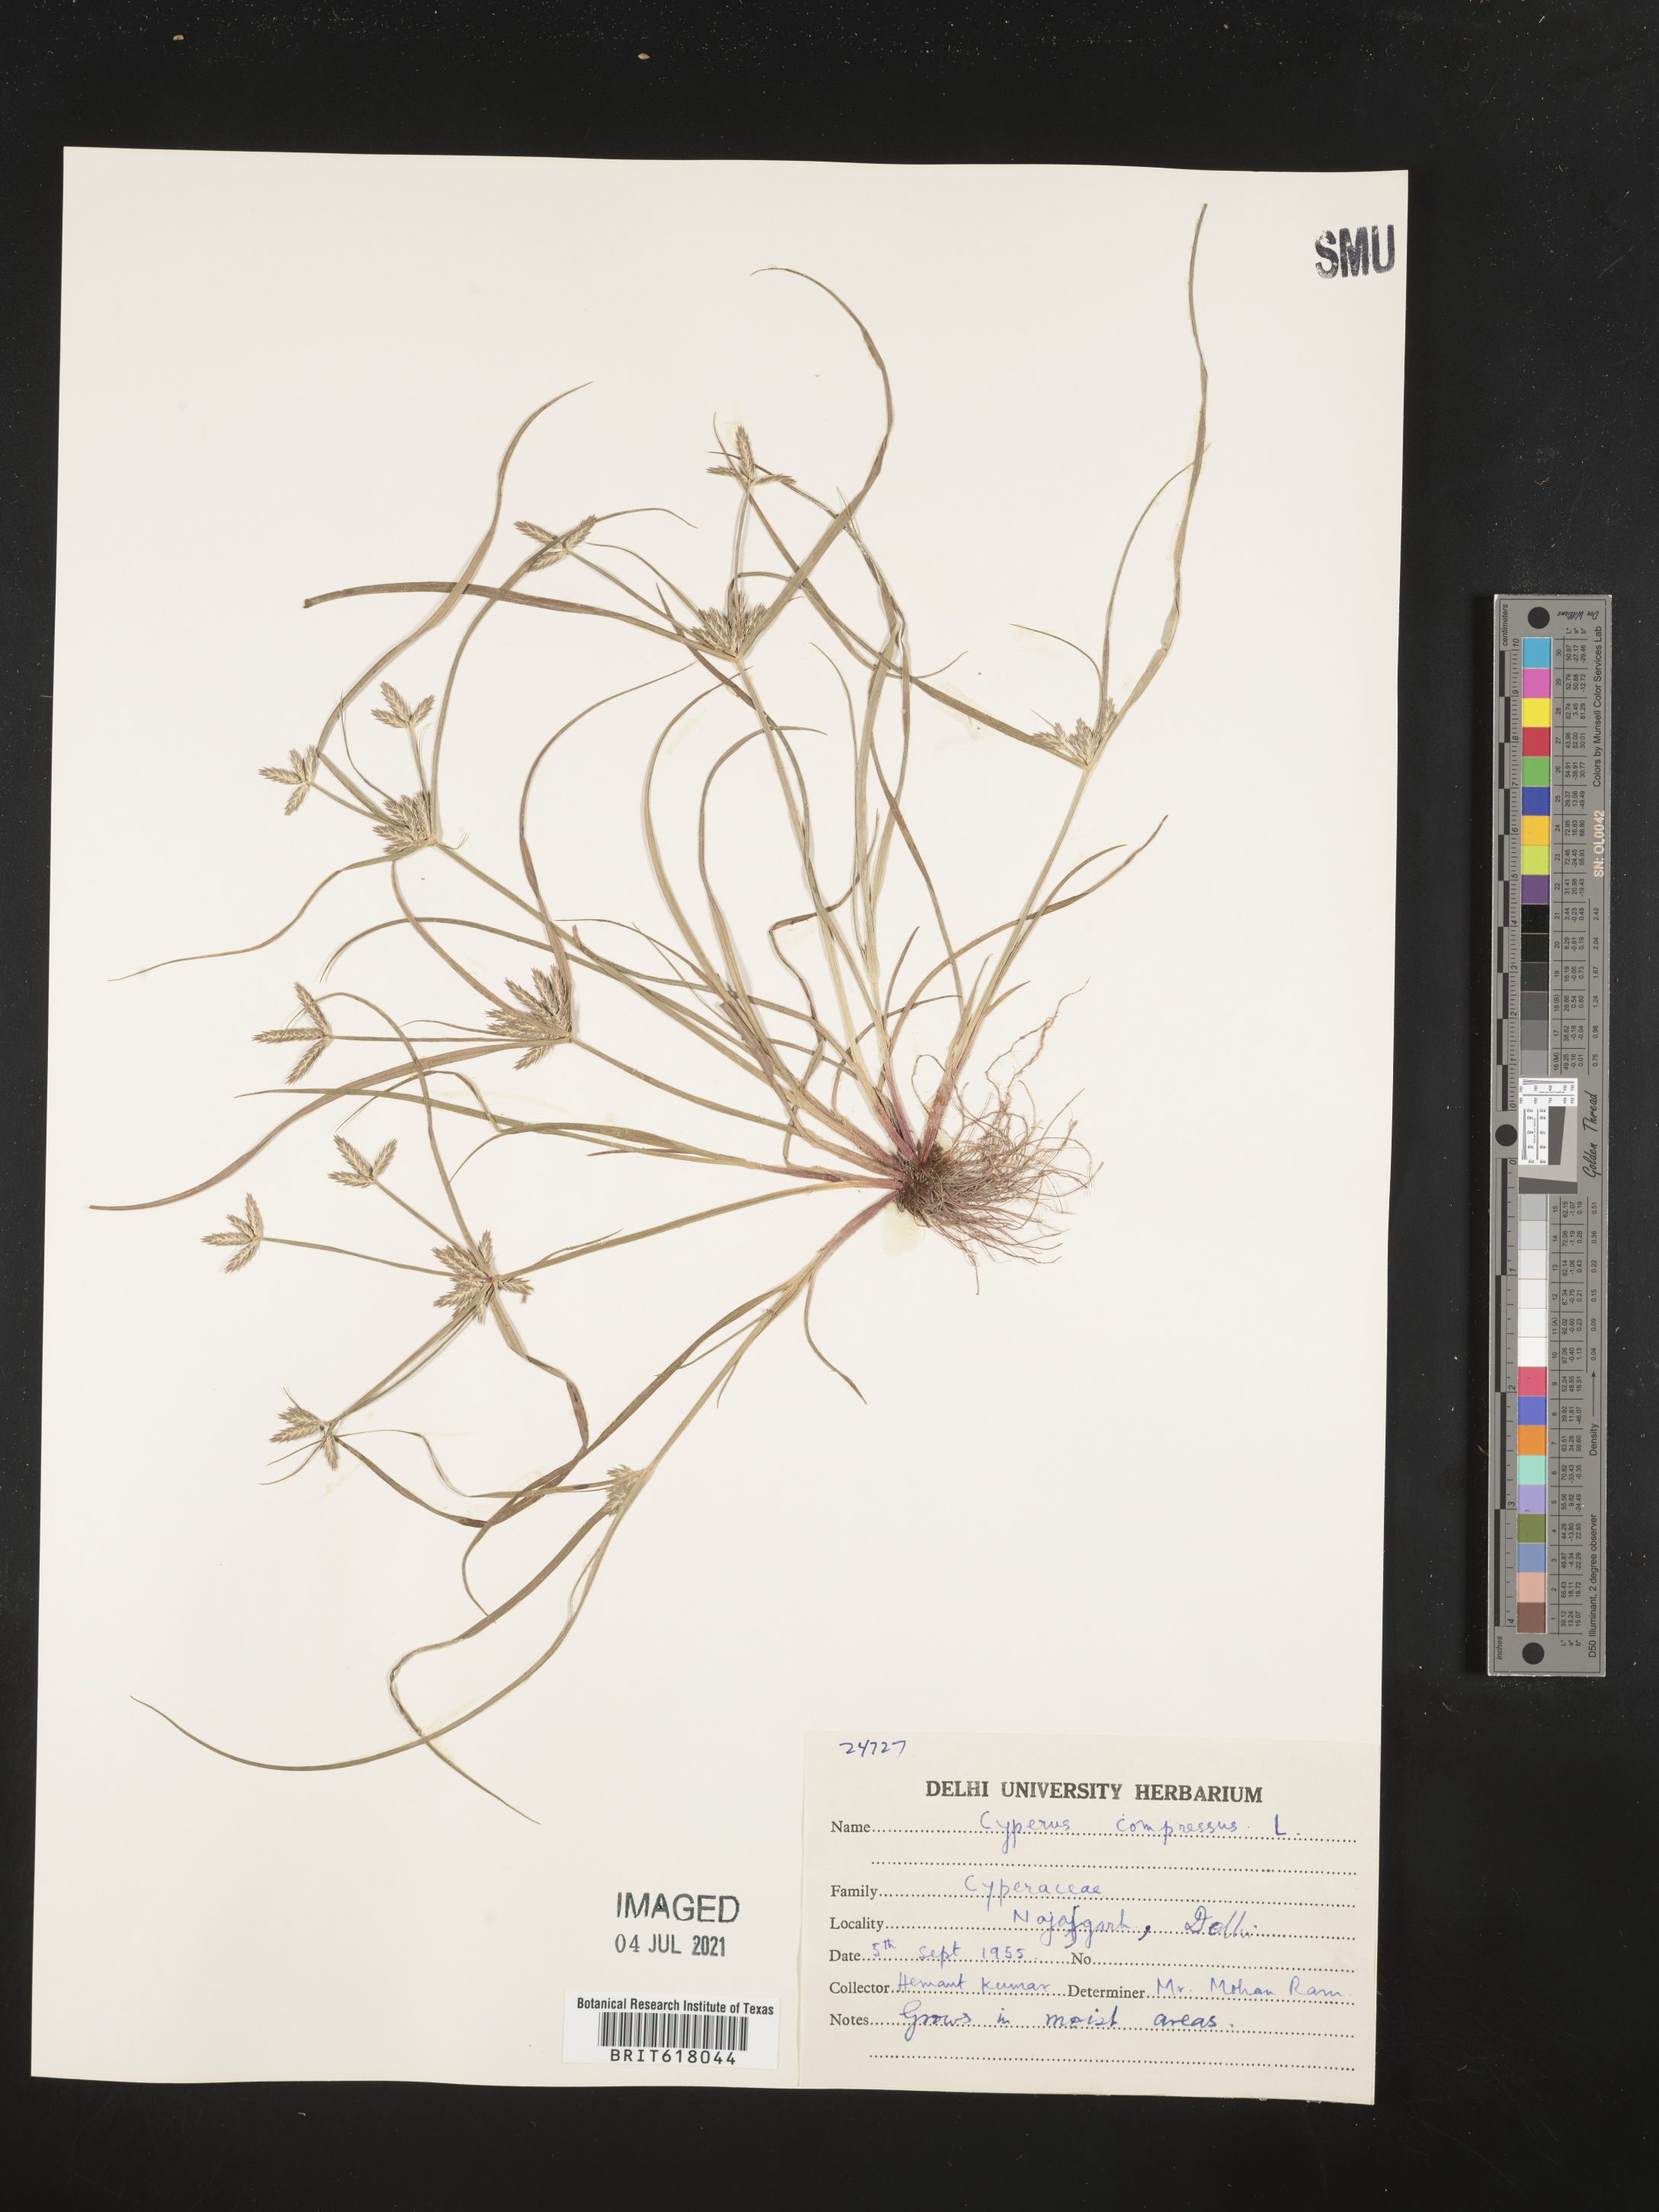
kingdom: Plantae
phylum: Tracheophyta
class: Liliopsida
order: Poales
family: Cyperaceae
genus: Cyperus
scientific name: Cyperus compressus
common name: Poorland flatsedge
